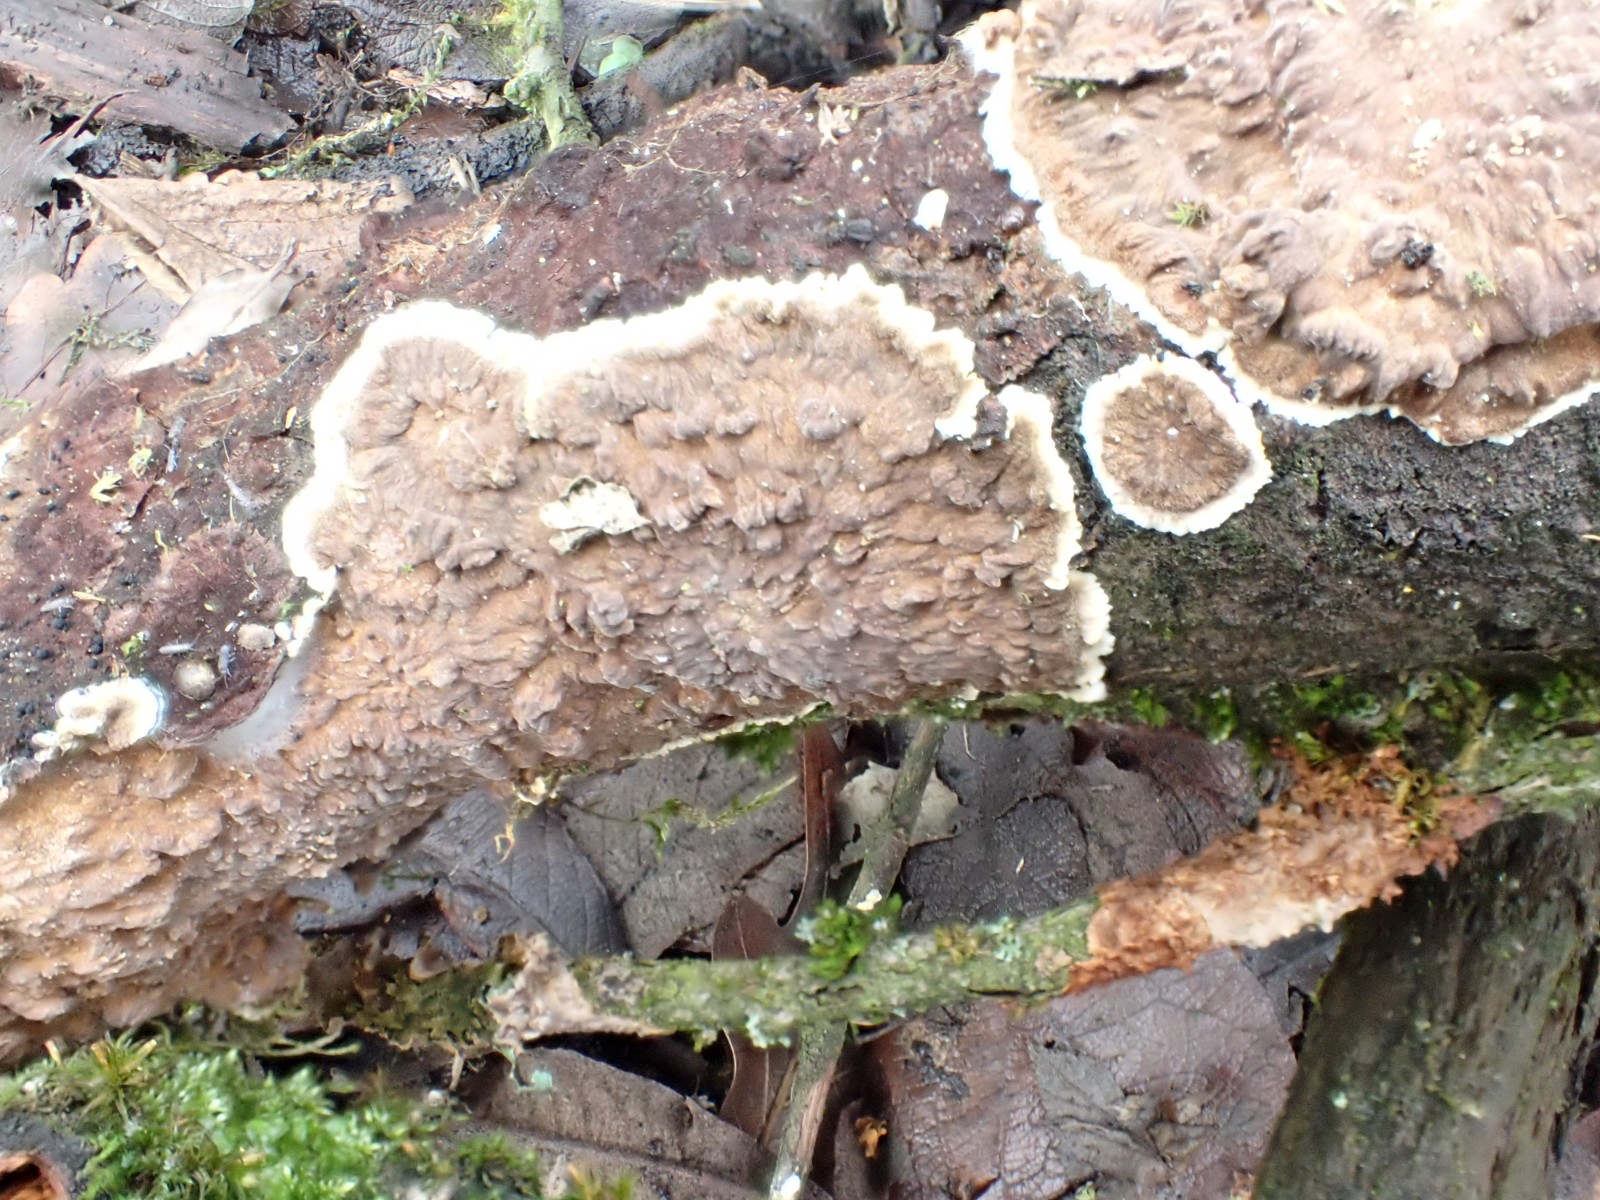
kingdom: Fungi
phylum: Basidiomycota
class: Agaricomycetes
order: Corticiales
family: Corticiaceae
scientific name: Corticiaceae
